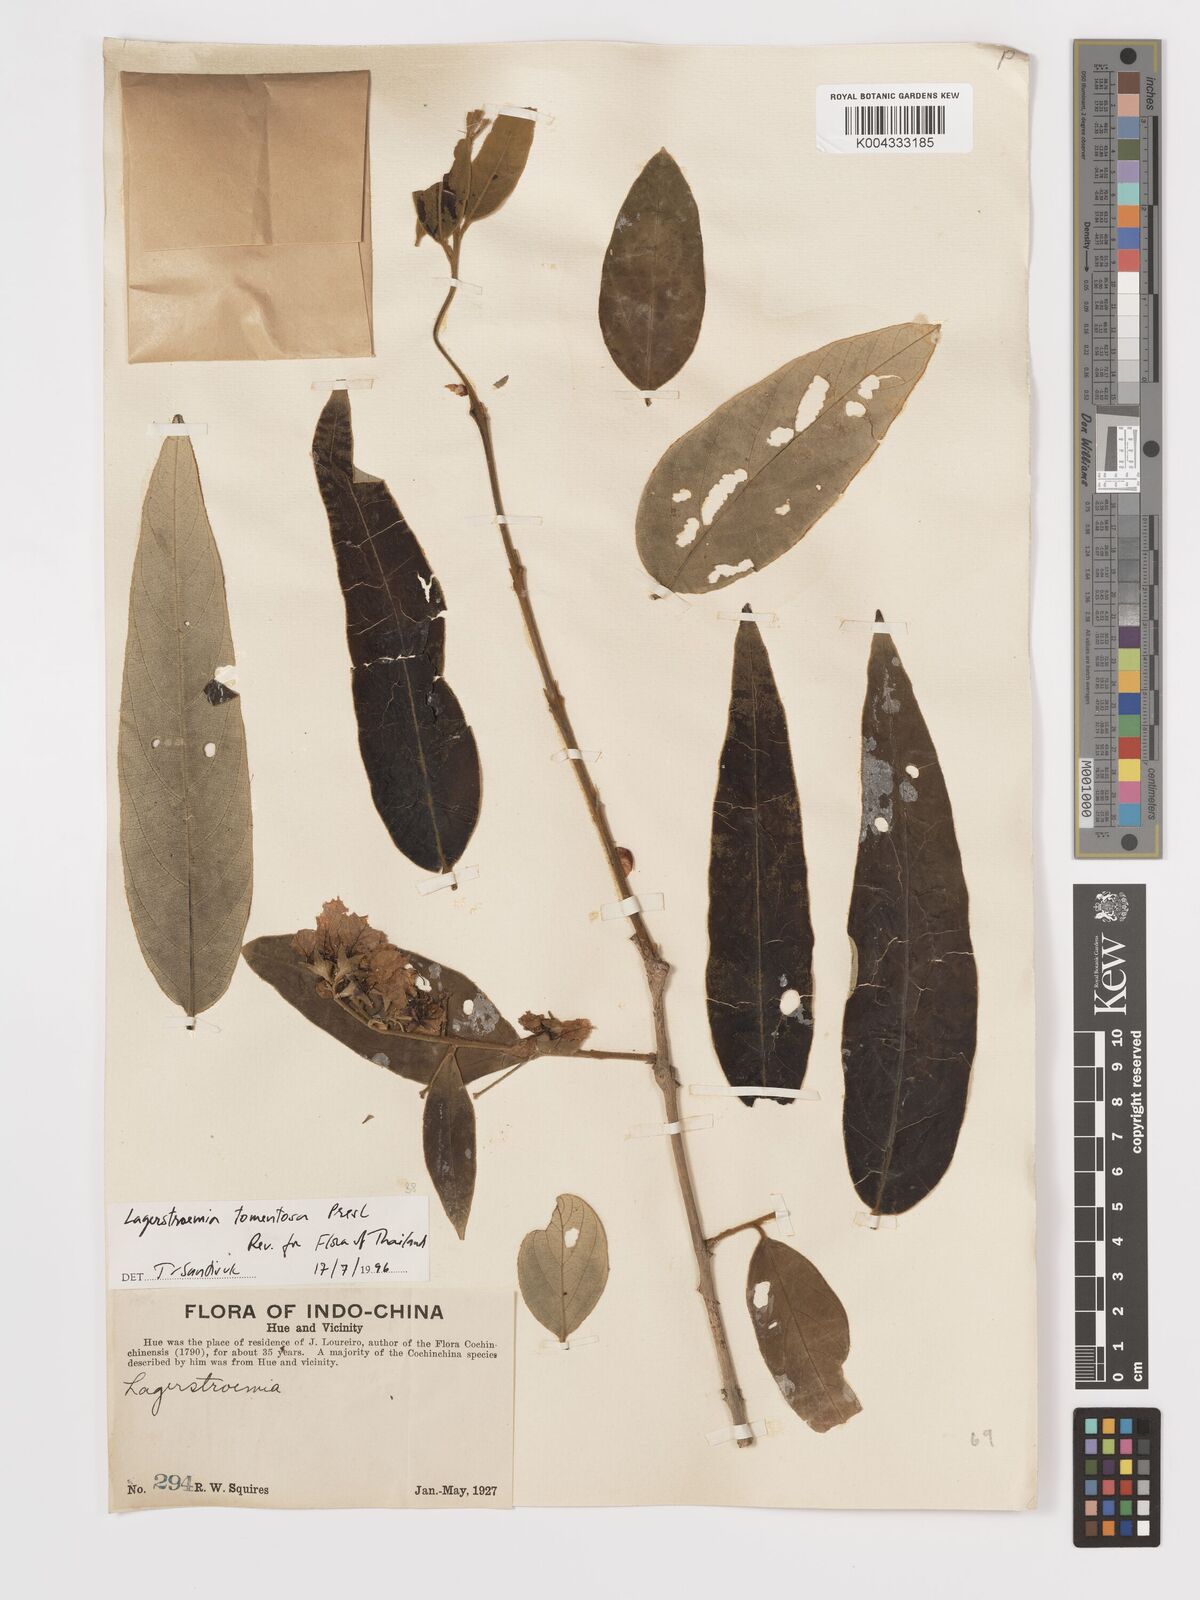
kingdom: Plantae
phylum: Tracheophyta
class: Magnoliopsida
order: Myrtales
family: Lythraceae
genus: Lagerstroemia
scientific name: Lagerstroemia tomentosa
